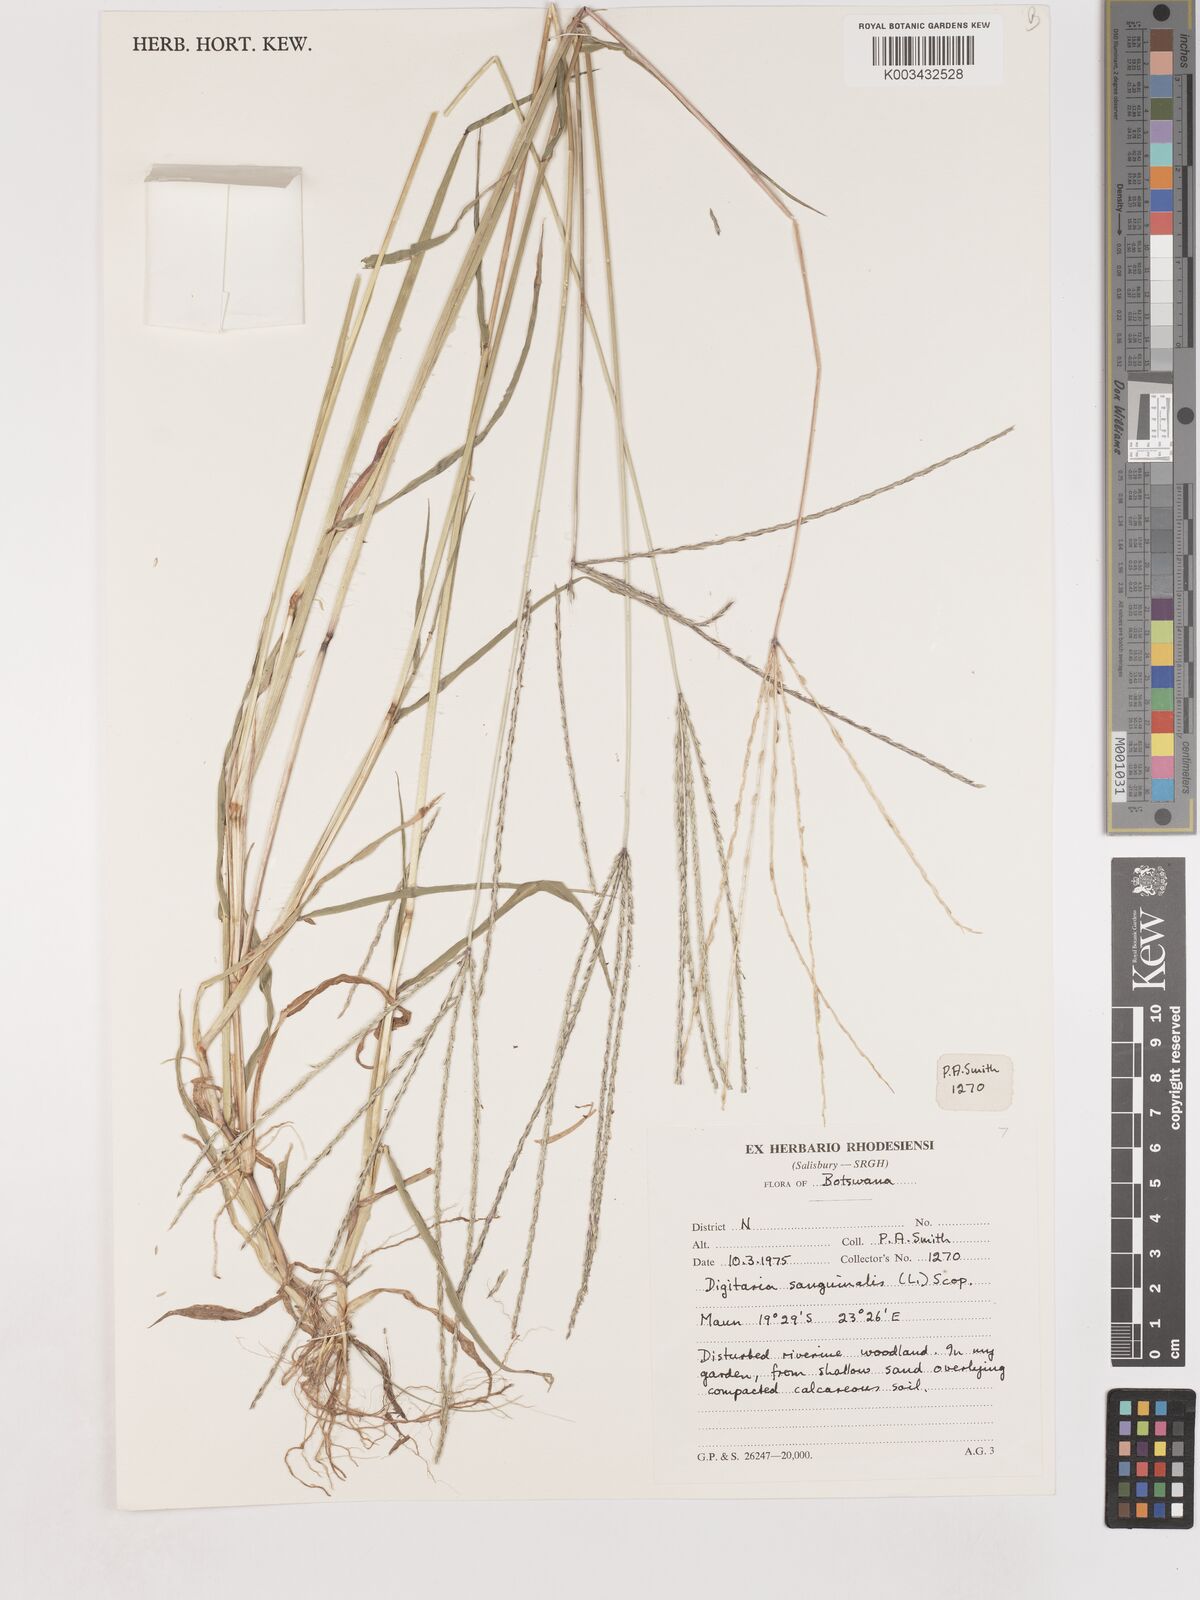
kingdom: Plantae
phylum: Tracheophyta
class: Liliopsida
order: Poales
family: Poaceae
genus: Digitaria
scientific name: Digitaria sanguinalis
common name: Hairy crabgrass
